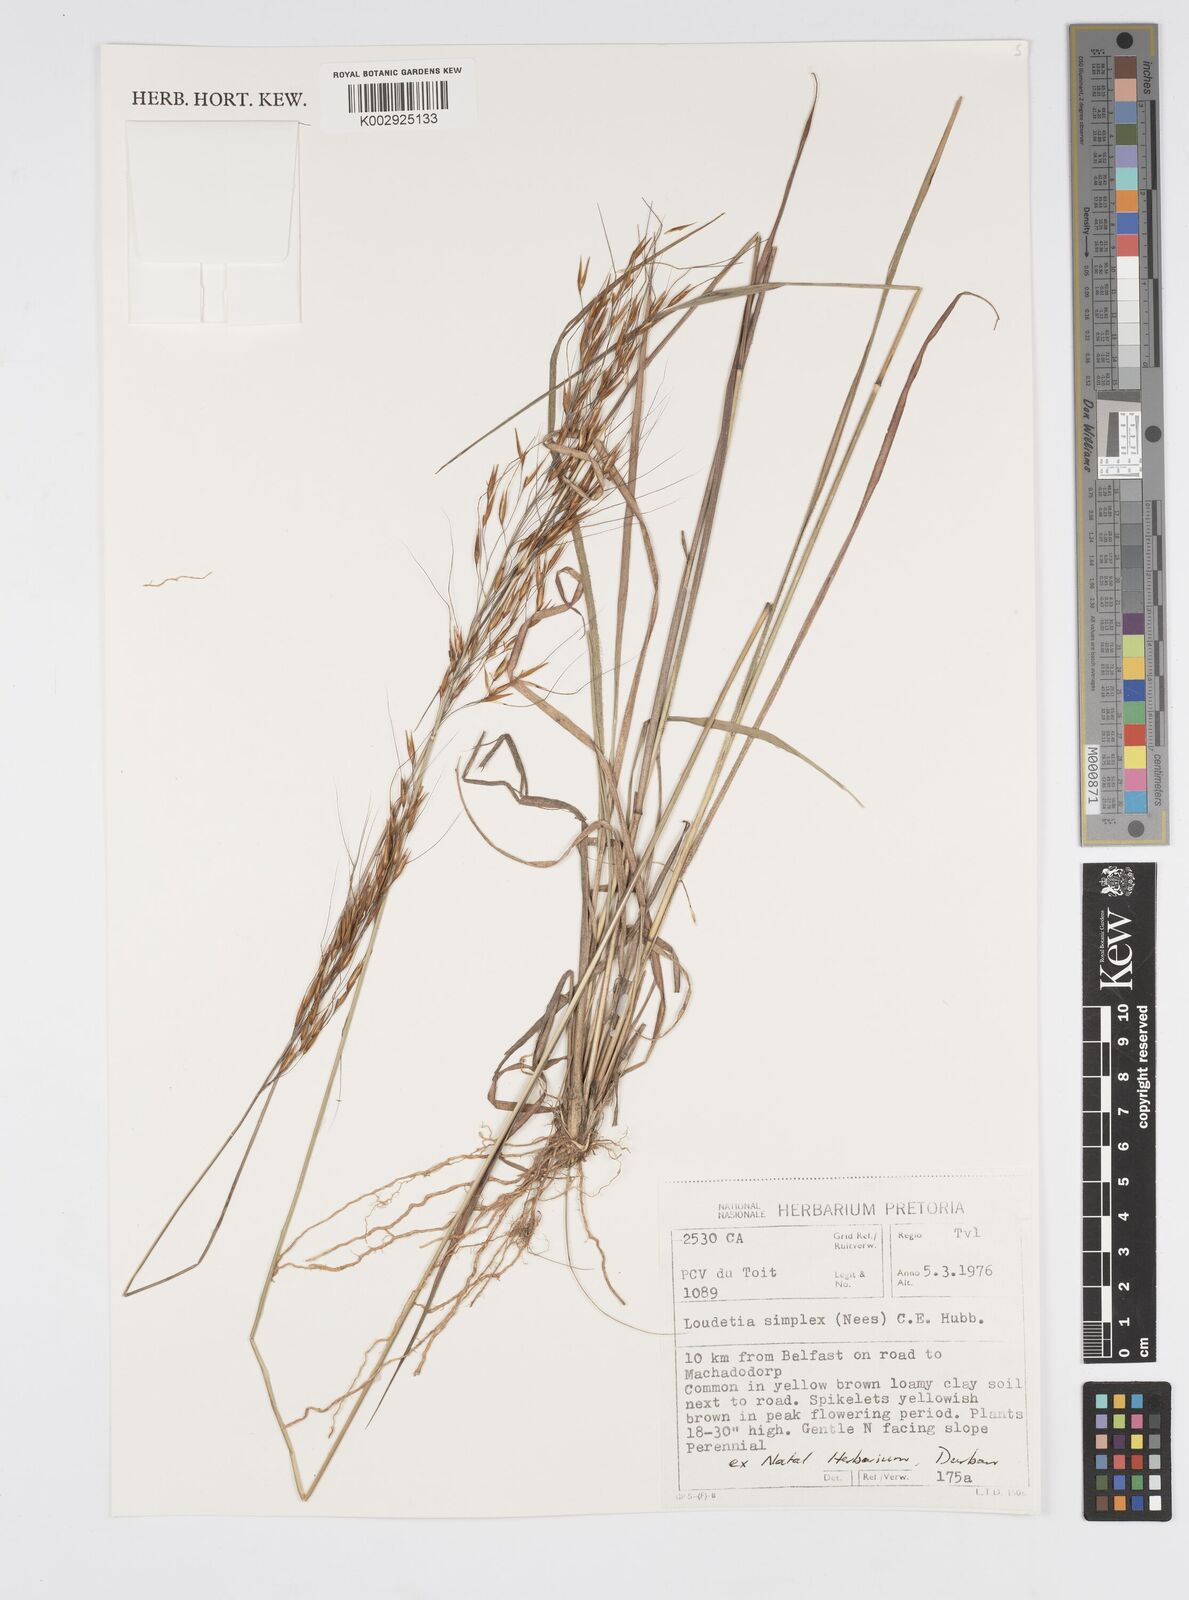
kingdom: Plantae
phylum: Tracheophyta
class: Liliopsida
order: Poales
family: Poaceae
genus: Loudetia
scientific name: Loudetia simplex
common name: Common russet grass
